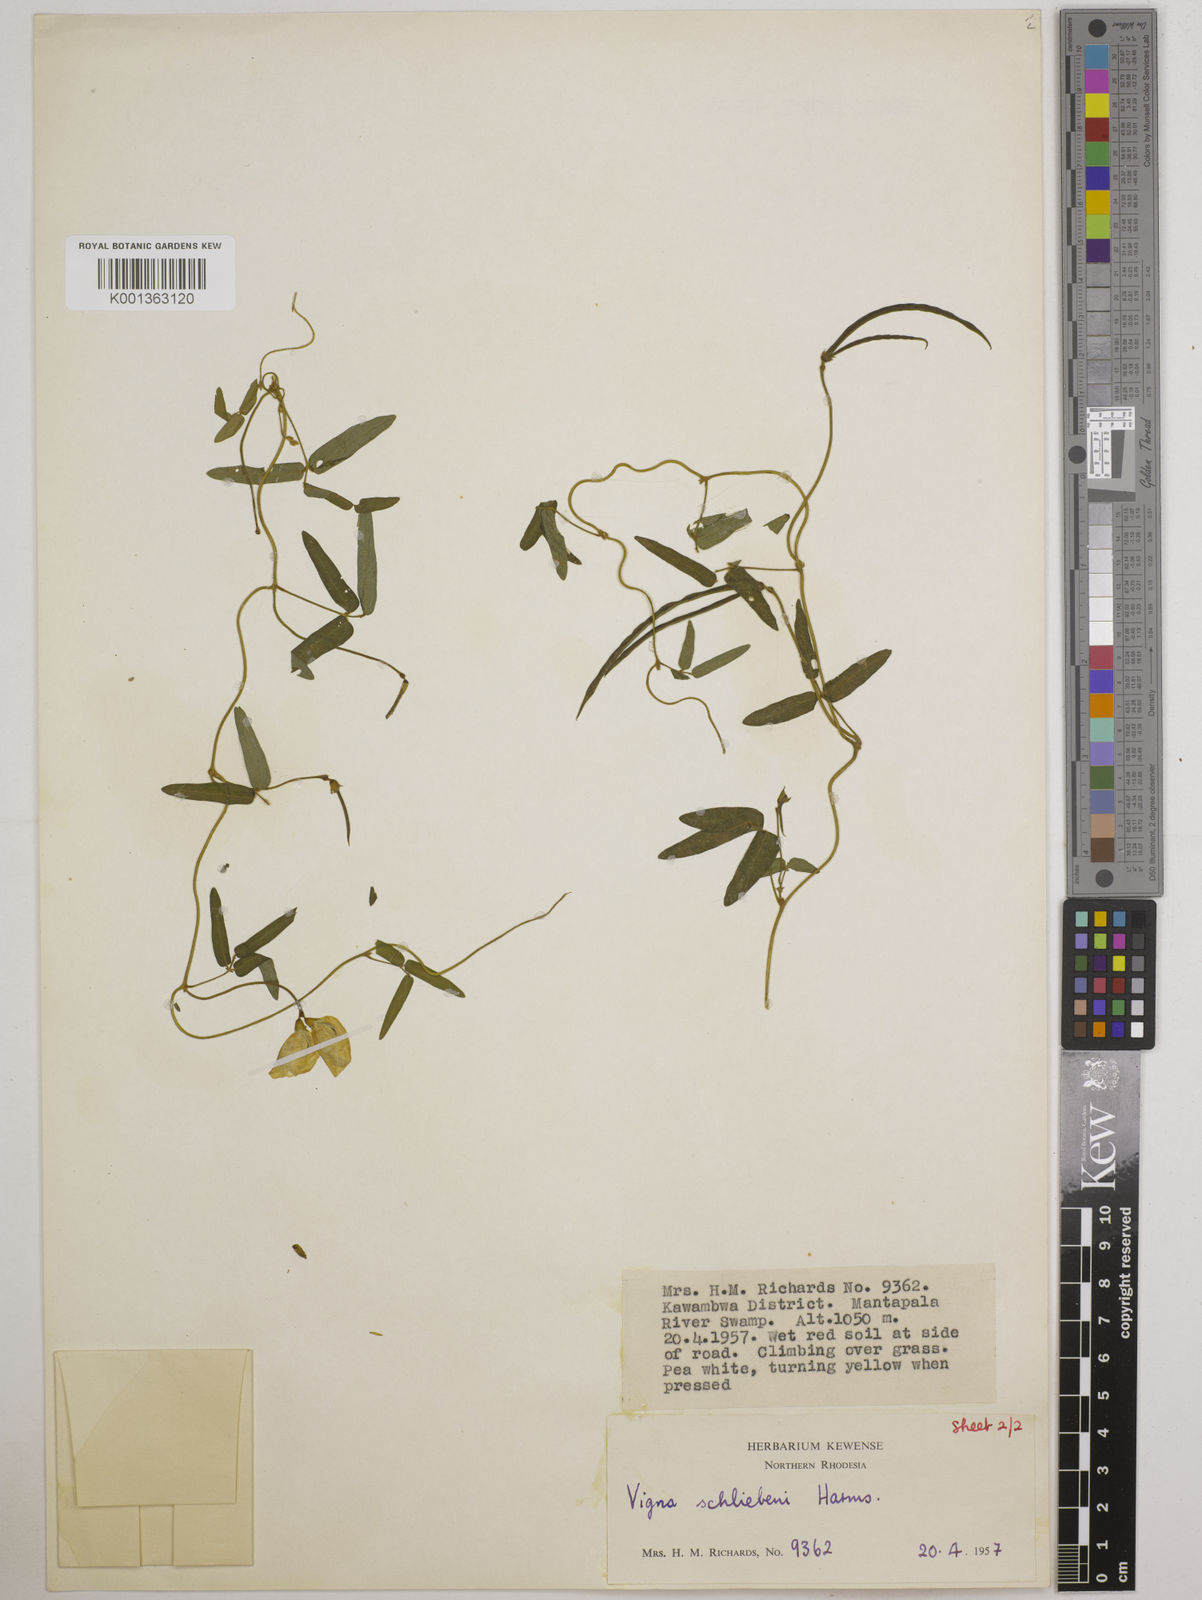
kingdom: Plantae
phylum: Tracheophyta
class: Magnoliopsida
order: Fabales
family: Fabaceae
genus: Vigna
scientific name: Vigna kirkii
